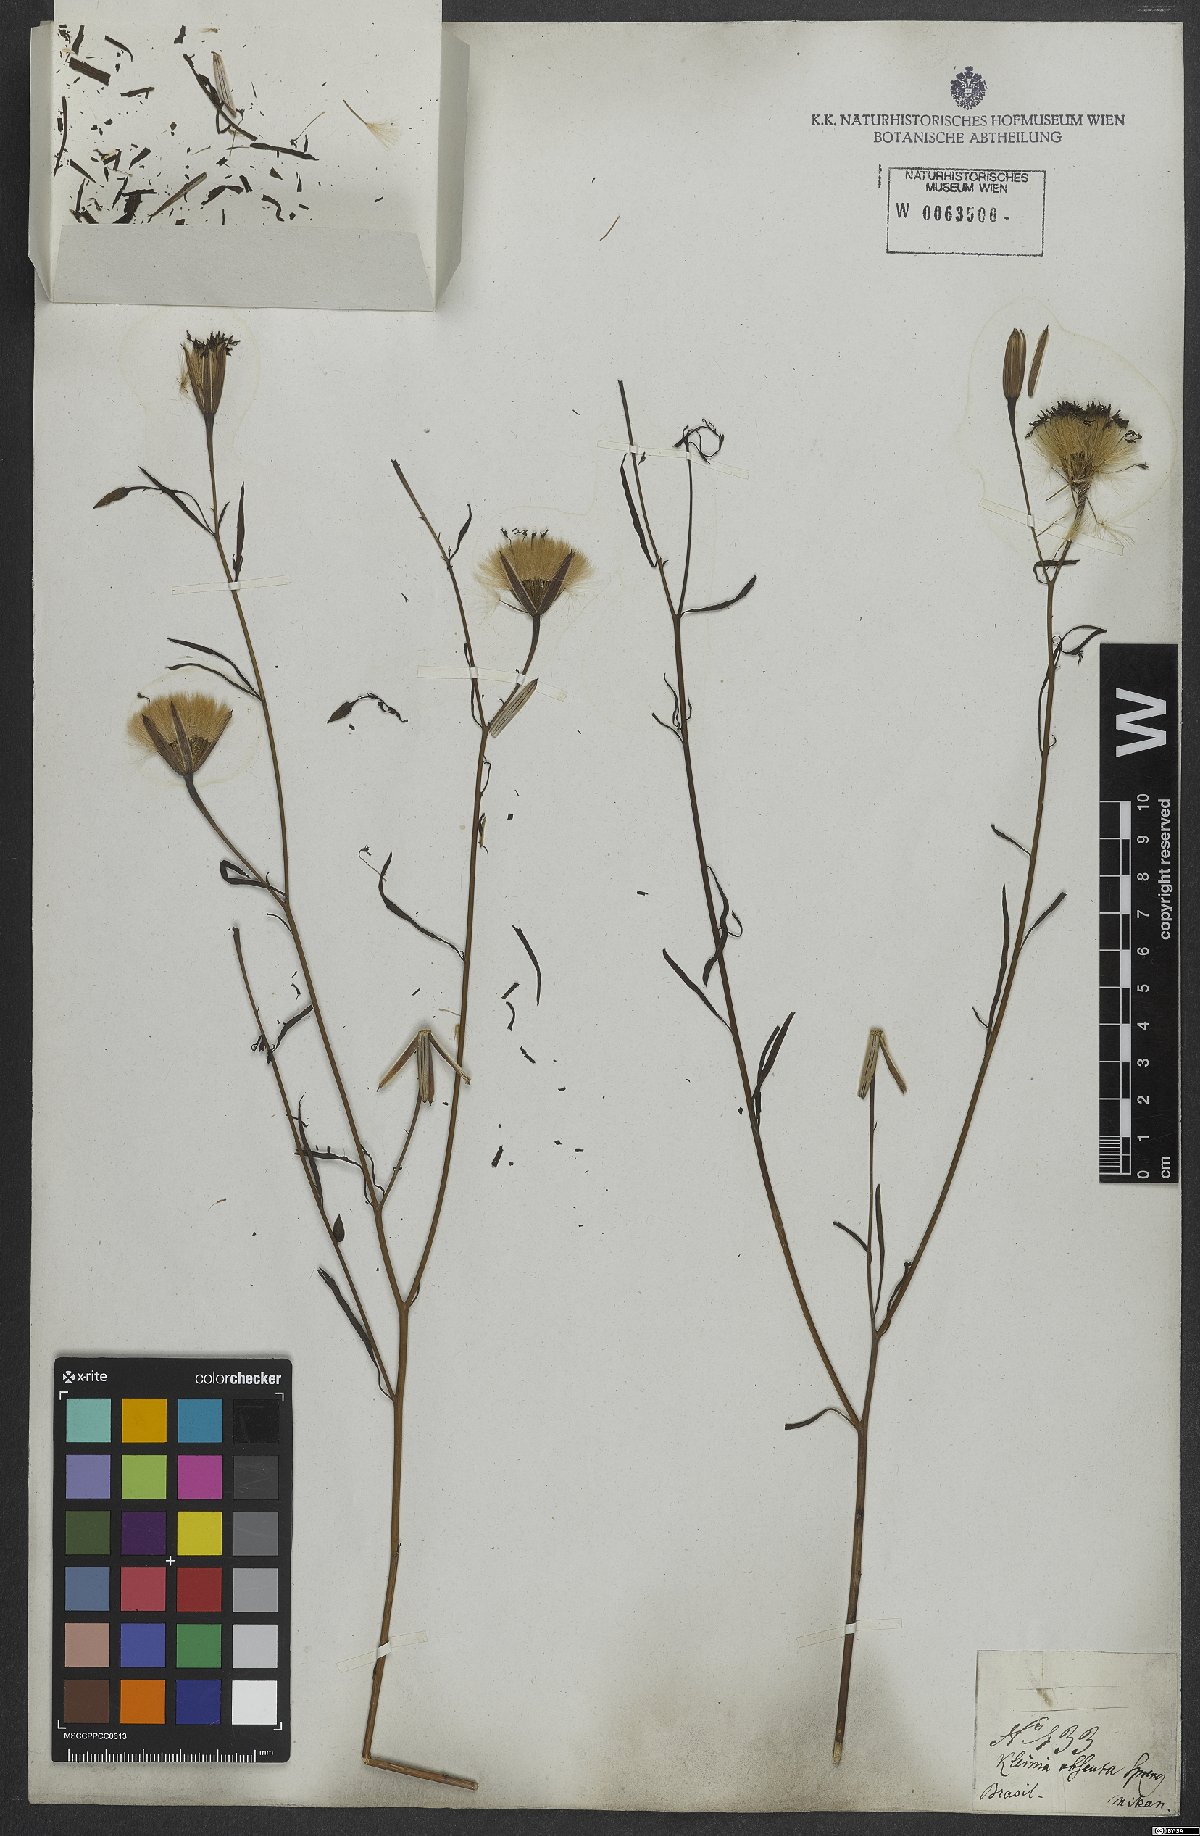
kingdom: Plantae
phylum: Tracheophyta
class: Magnoliopsida
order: Asterales
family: Asteraceae
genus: Porophyllum
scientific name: Porophyllum obscurum
